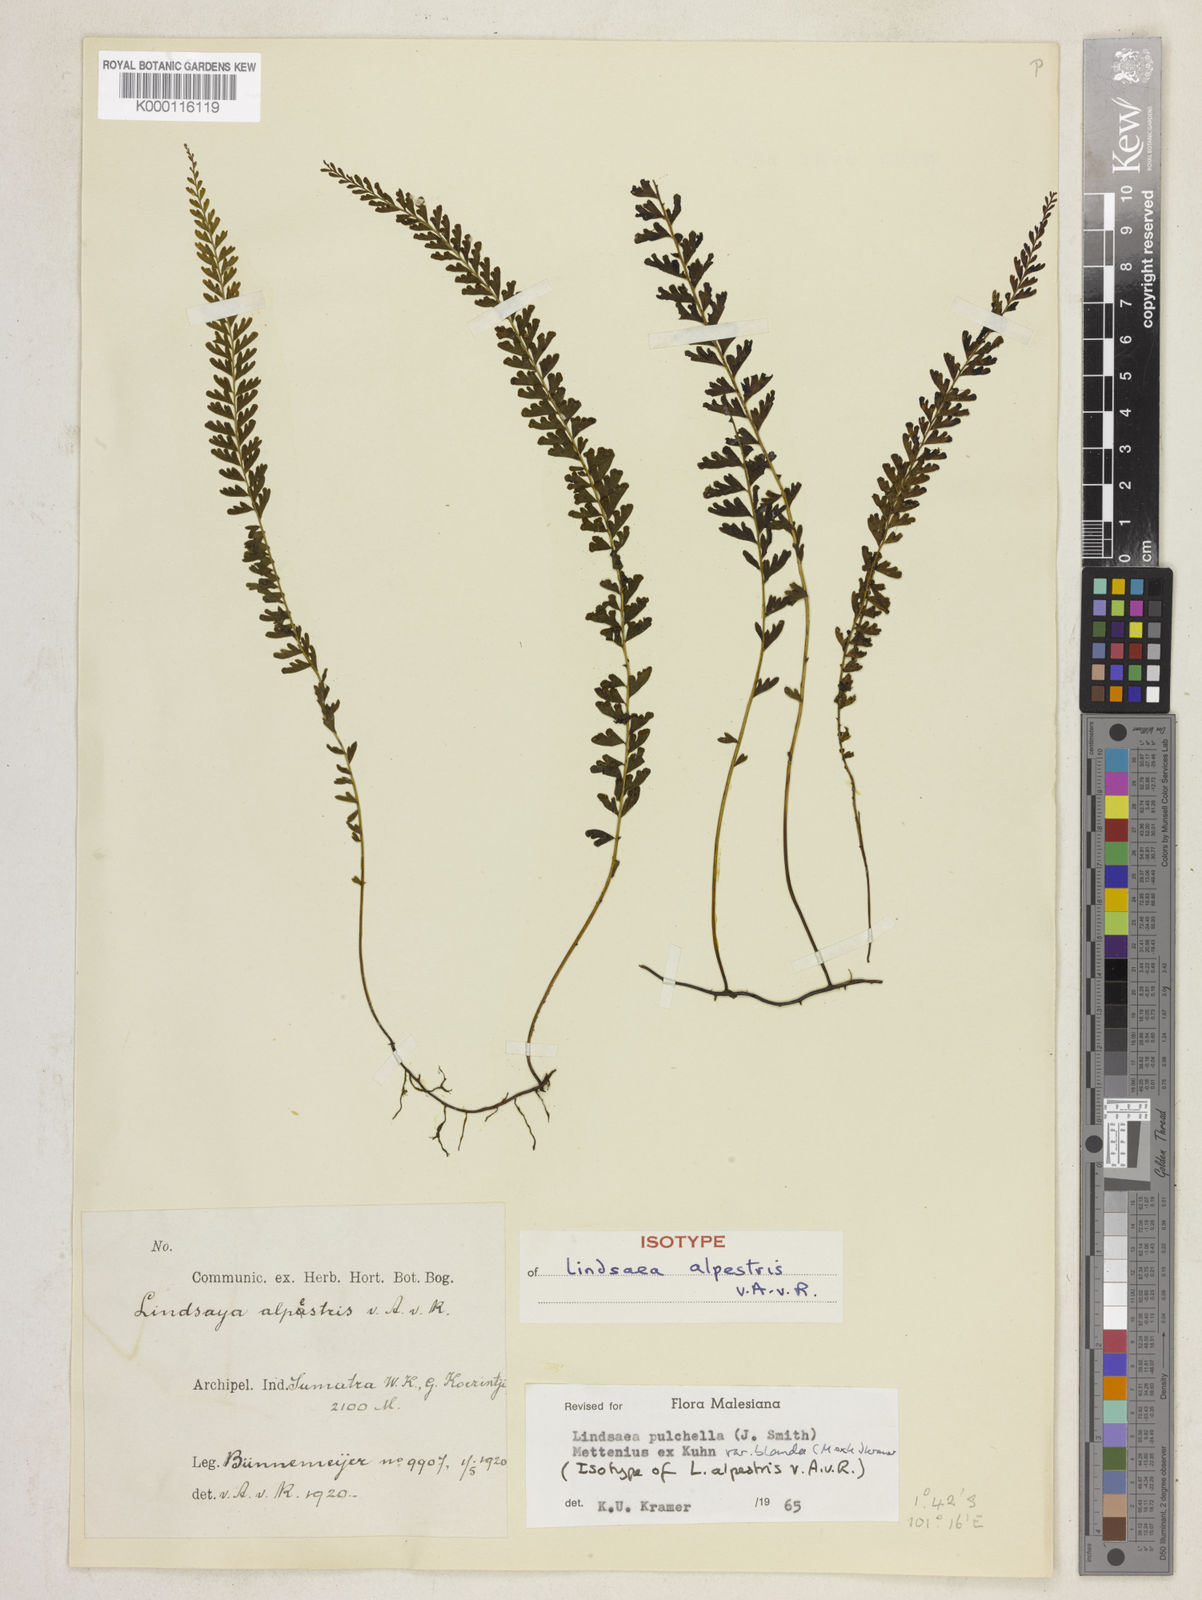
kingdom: Plantae
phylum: Tracheophyta
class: Polypodiopsida
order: Polypodiales
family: Lindsaeaceae
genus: Lindsaea
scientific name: Lindsaea
